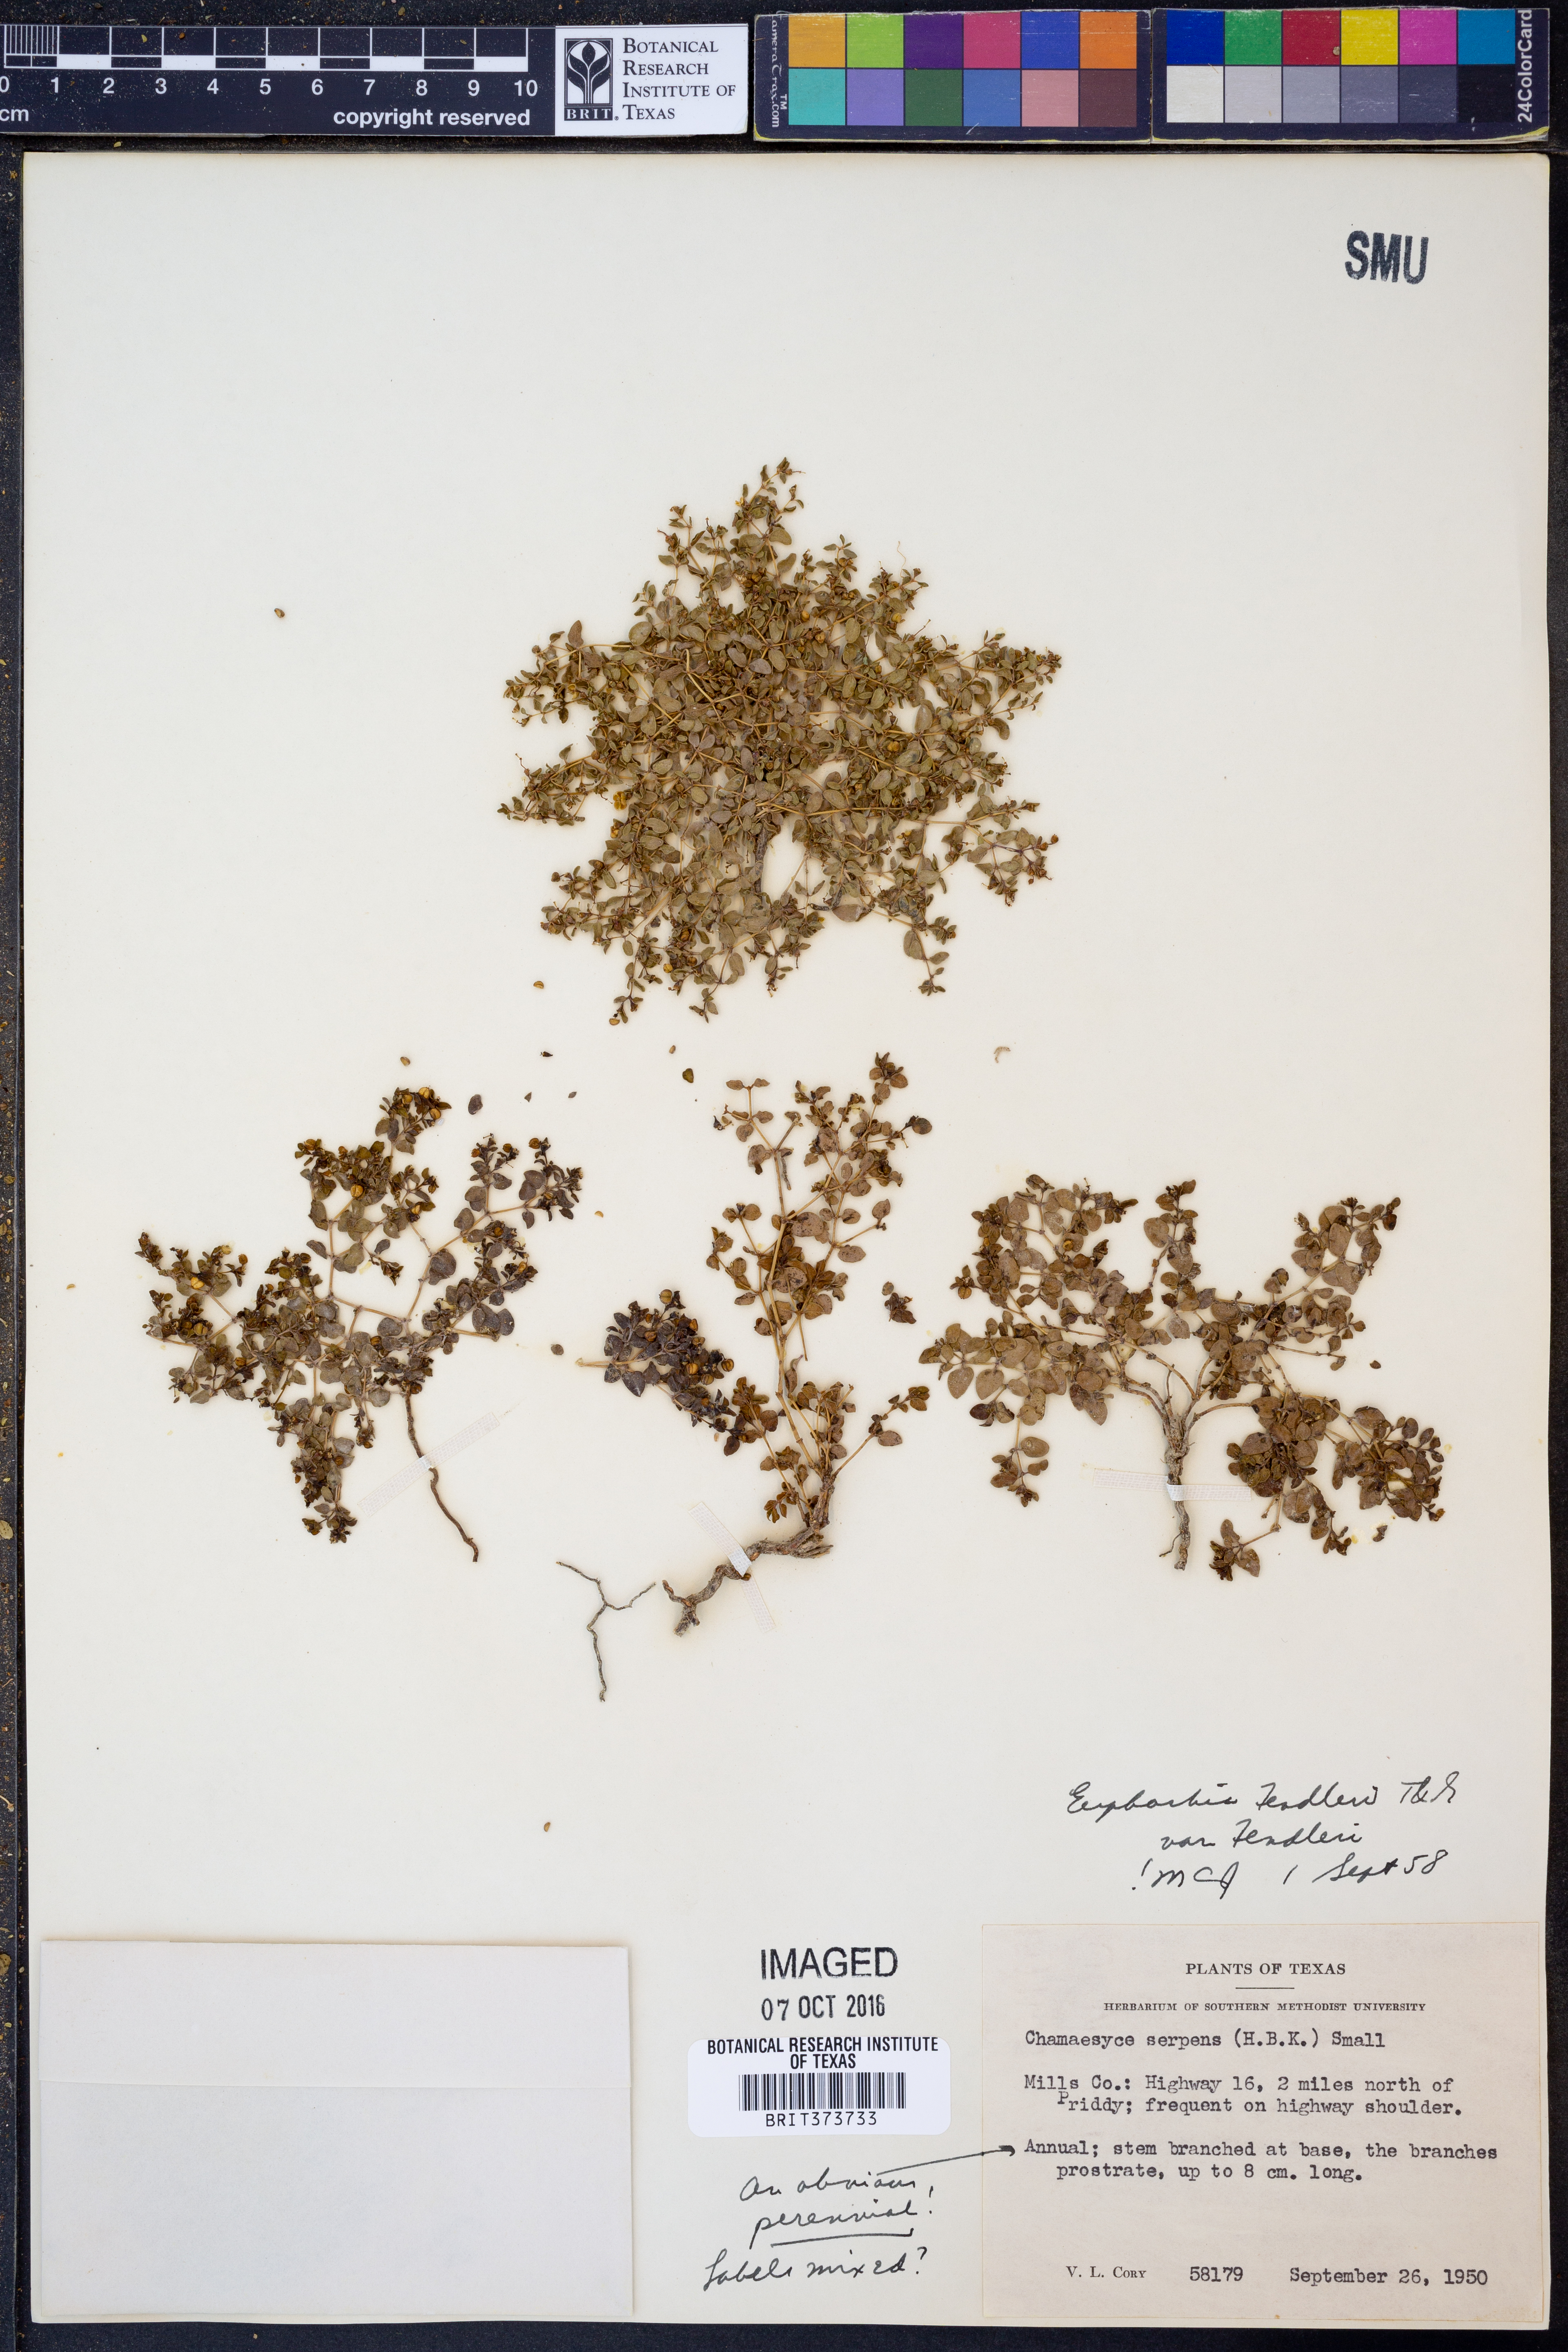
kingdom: Plantae
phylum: Tracheophyta
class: Magnoliopsida
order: Malpighiales
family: Euphorbiaceae
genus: Euphorbia
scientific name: Euphorbia fendleri
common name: Fendler's euphorbia
